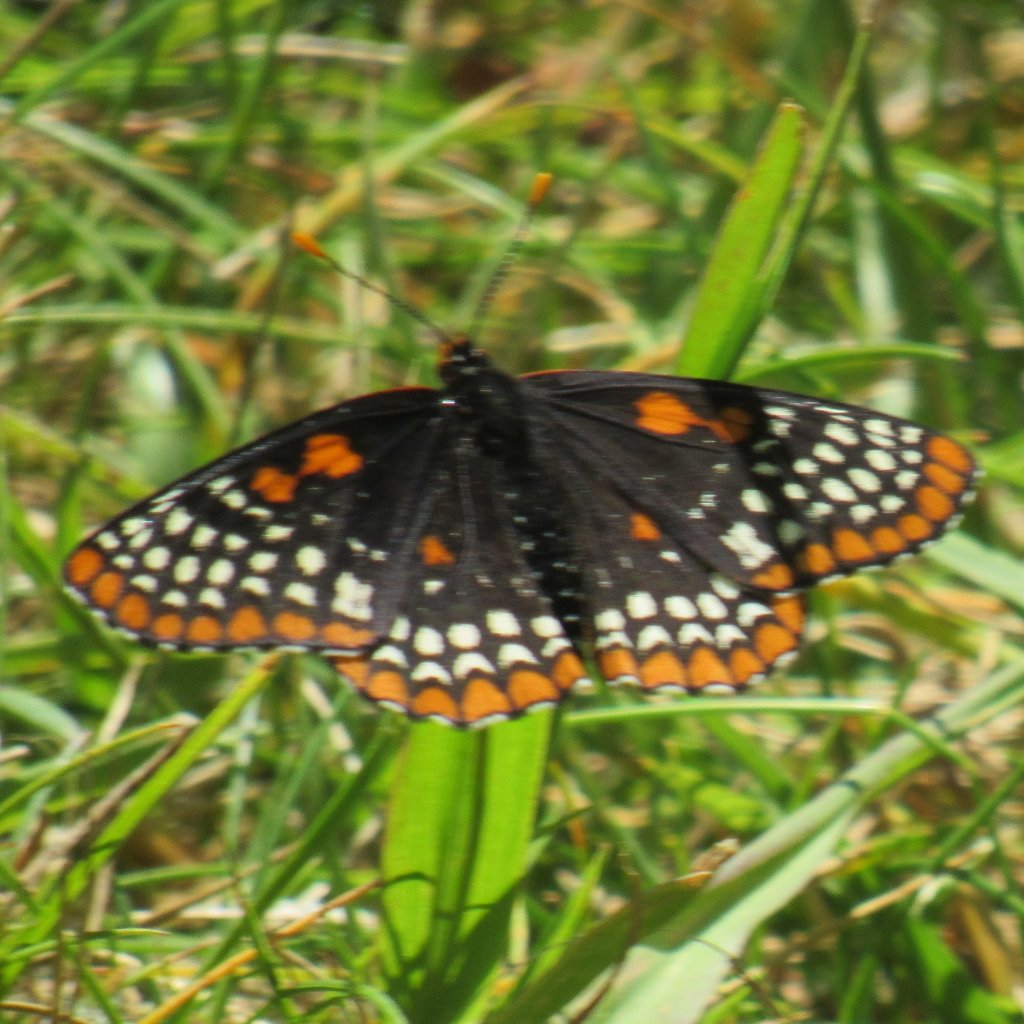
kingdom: Animalia
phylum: Arthropoda
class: Insecta
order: Lepidoptera
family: Nymphalidae
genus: Euphydryas
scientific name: Euphydryas phaeton
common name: Baltimore Checkerspot
